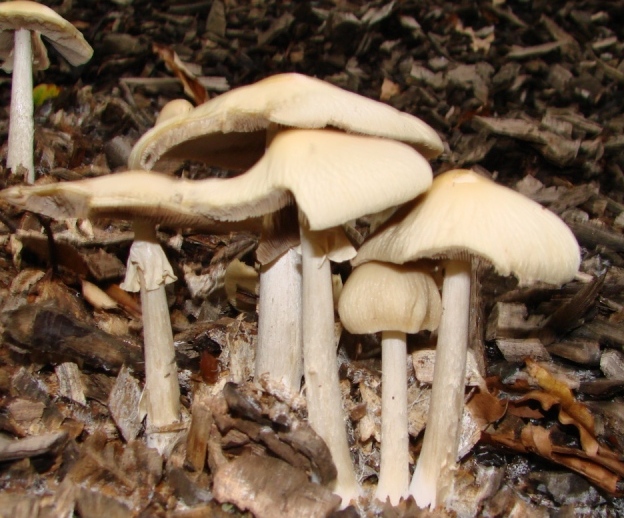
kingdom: Fungi
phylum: Basidiomycota
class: Agaricomycetes
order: Agaricales
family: Strophariaceae
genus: Agrocybe
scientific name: Agrocybe rivulosa
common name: året agerhat
